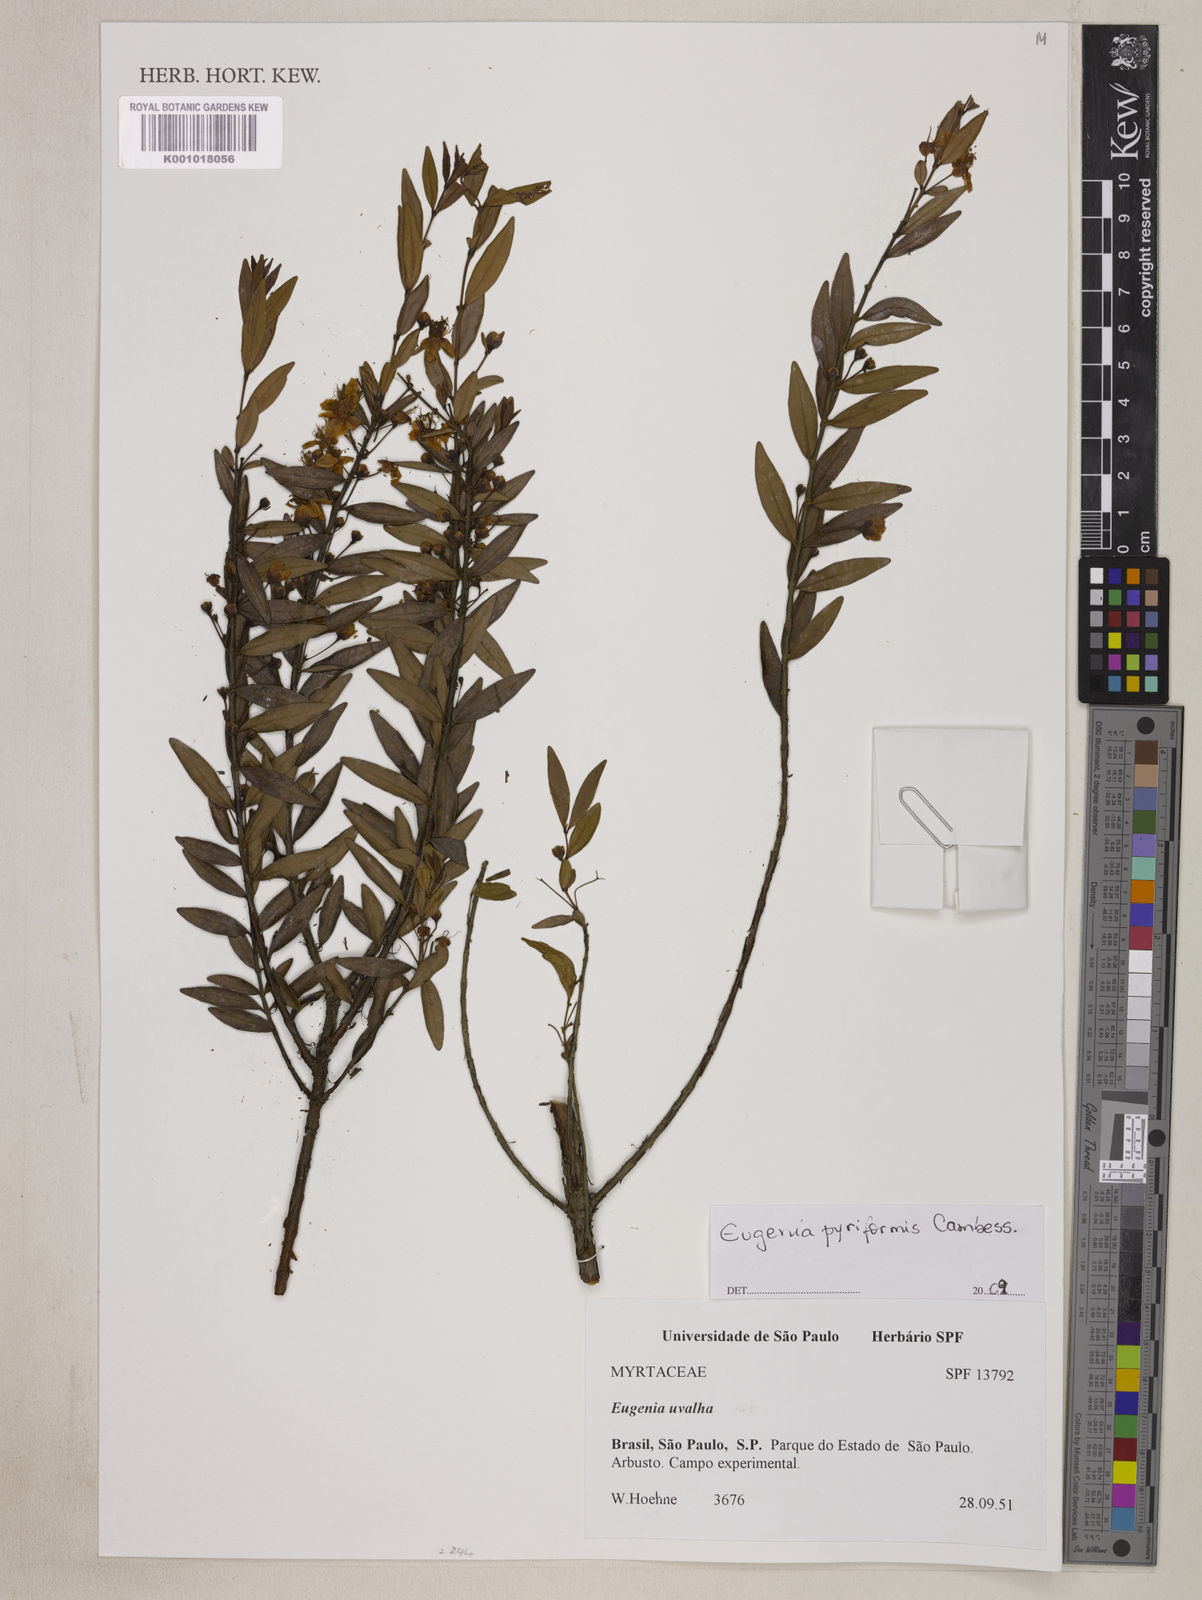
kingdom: Plantae
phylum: Tracheophyta
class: Magnoliopsida
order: Myrtales
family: Myrtaceae
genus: Eugenia
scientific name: Eugenia pyriformis
